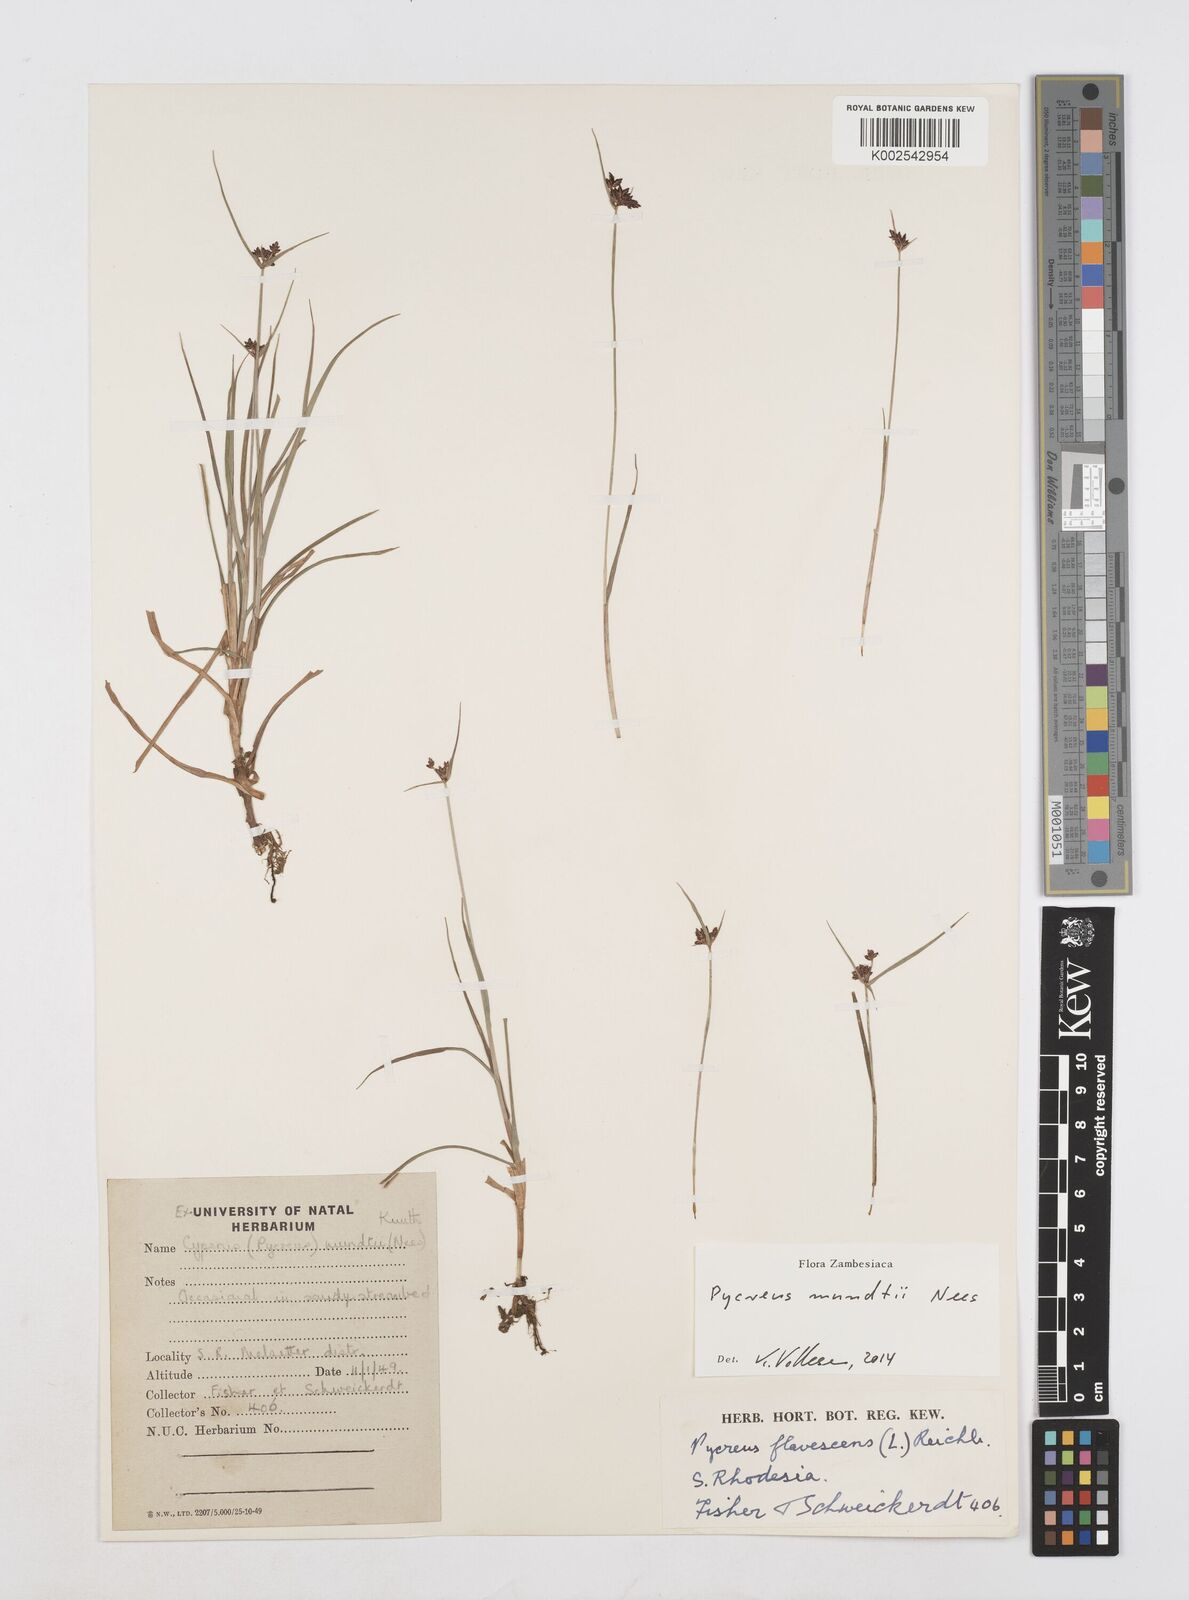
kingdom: Plantae
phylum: Tracheophyta
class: Liliopsida
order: Poales
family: Cyperaceae
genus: Cyperus
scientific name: Cyperus mundii
